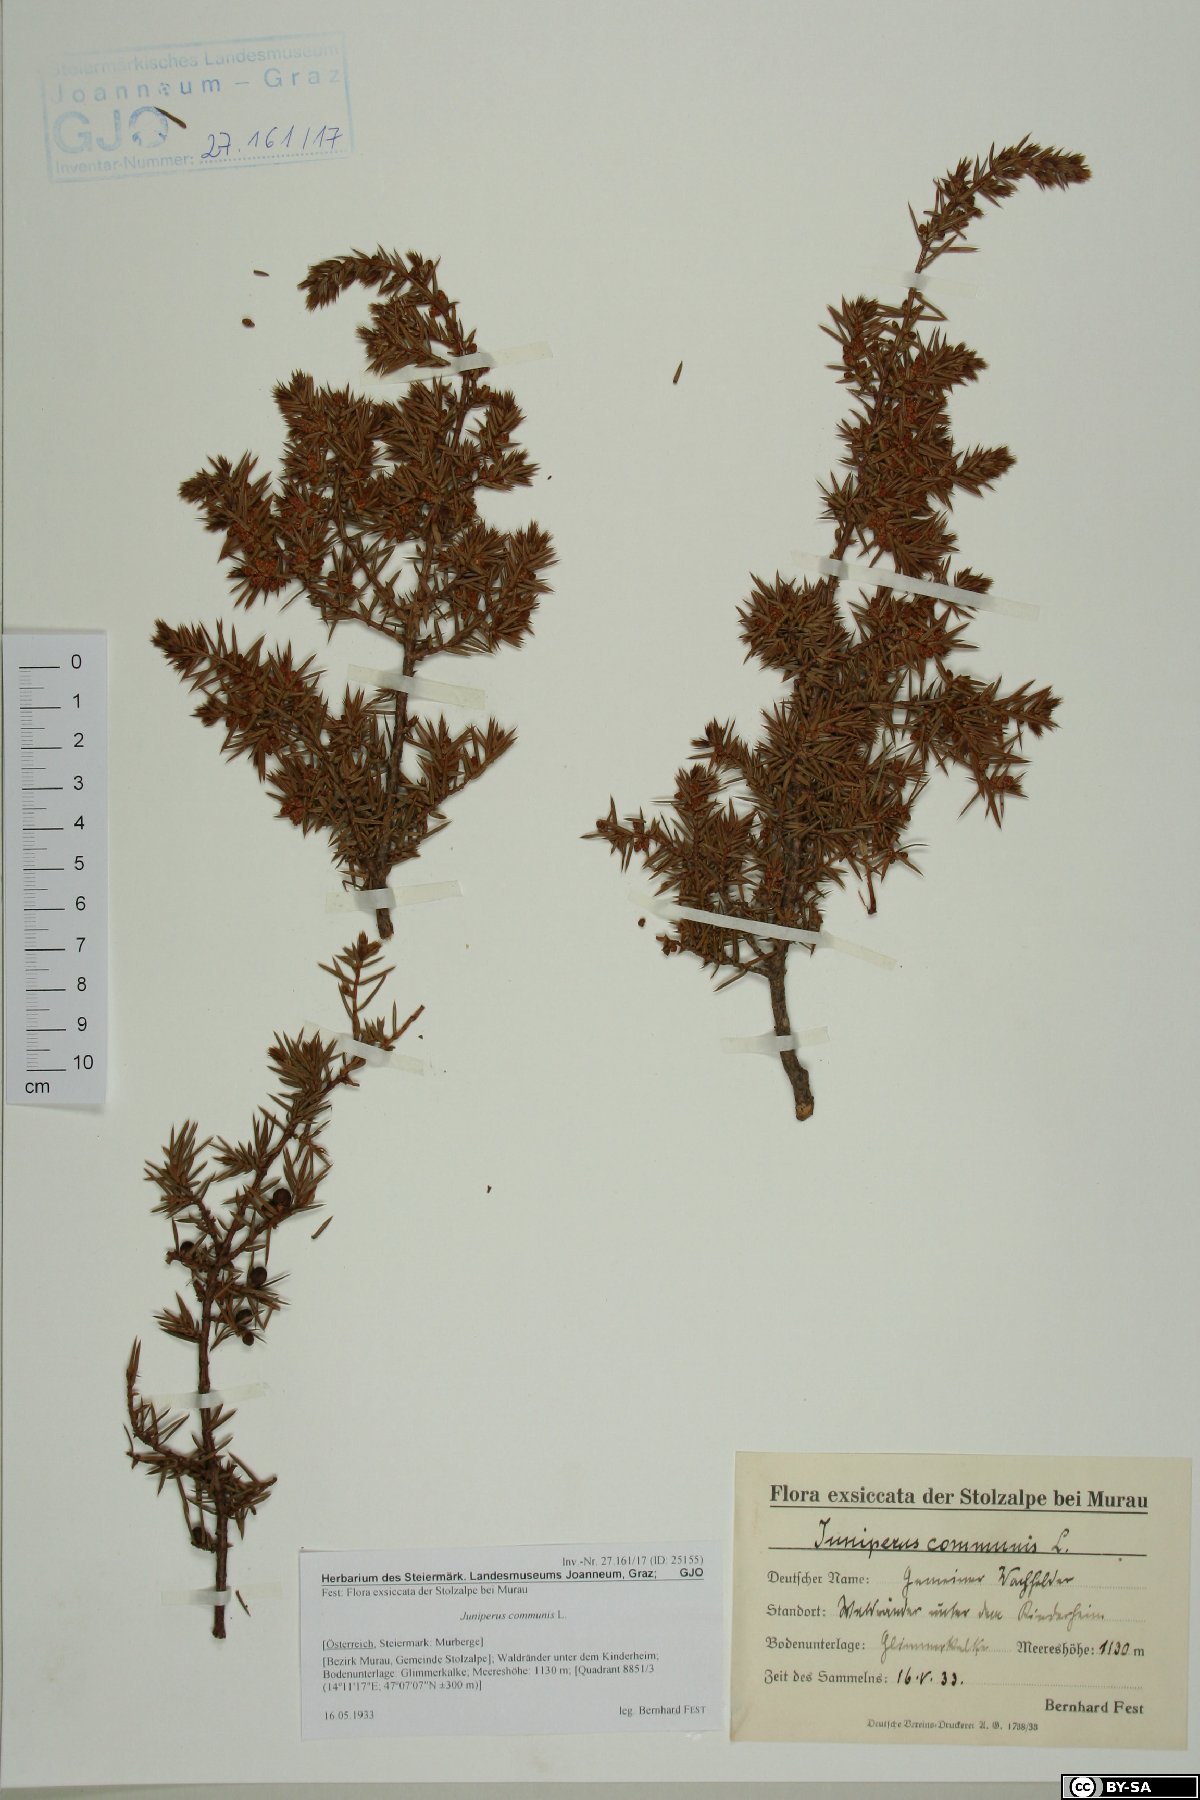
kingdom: Plantae
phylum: Tracheophyta
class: Pinopsida
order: Pinales
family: Cupressaceae
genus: Juniperus
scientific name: Juniperus communis
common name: Common juniper
